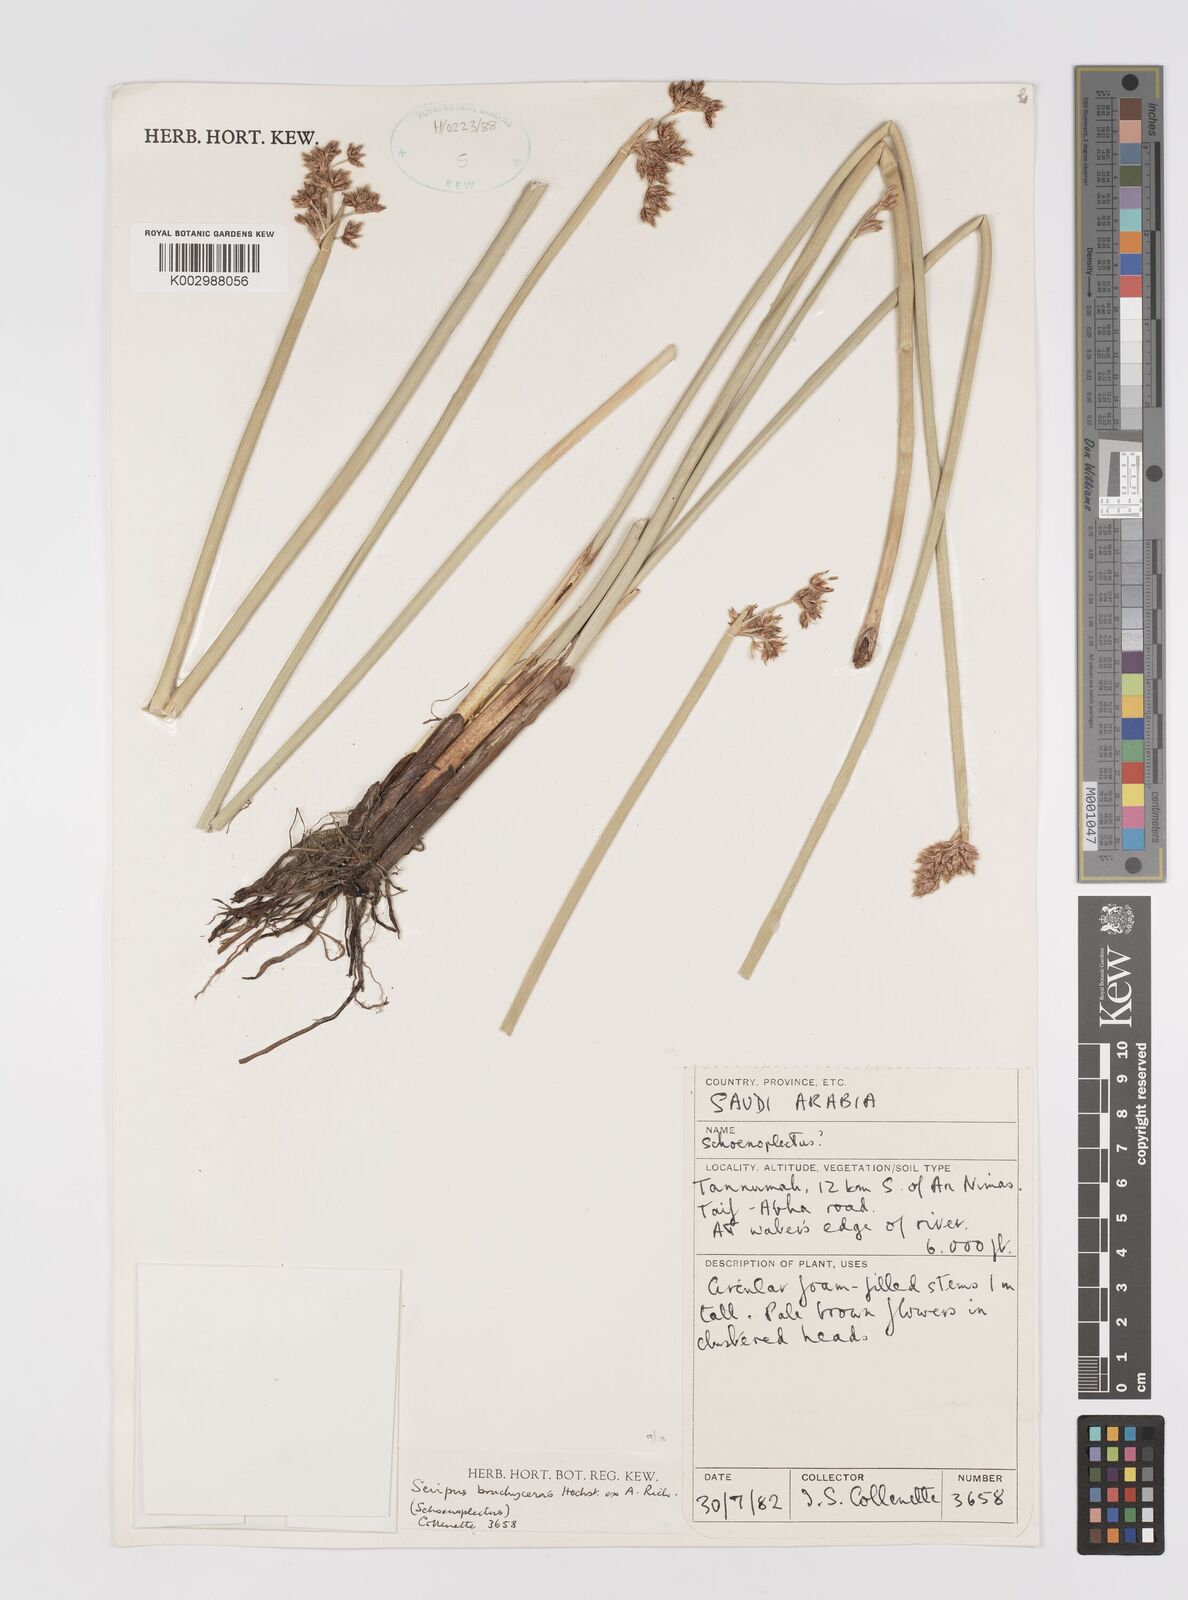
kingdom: Plantae
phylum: Tracheophyta
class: Liliopsida
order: Poales
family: Cyperaceae
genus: Schoenoplectiella
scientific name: Schoenoplectiella brachyceras
